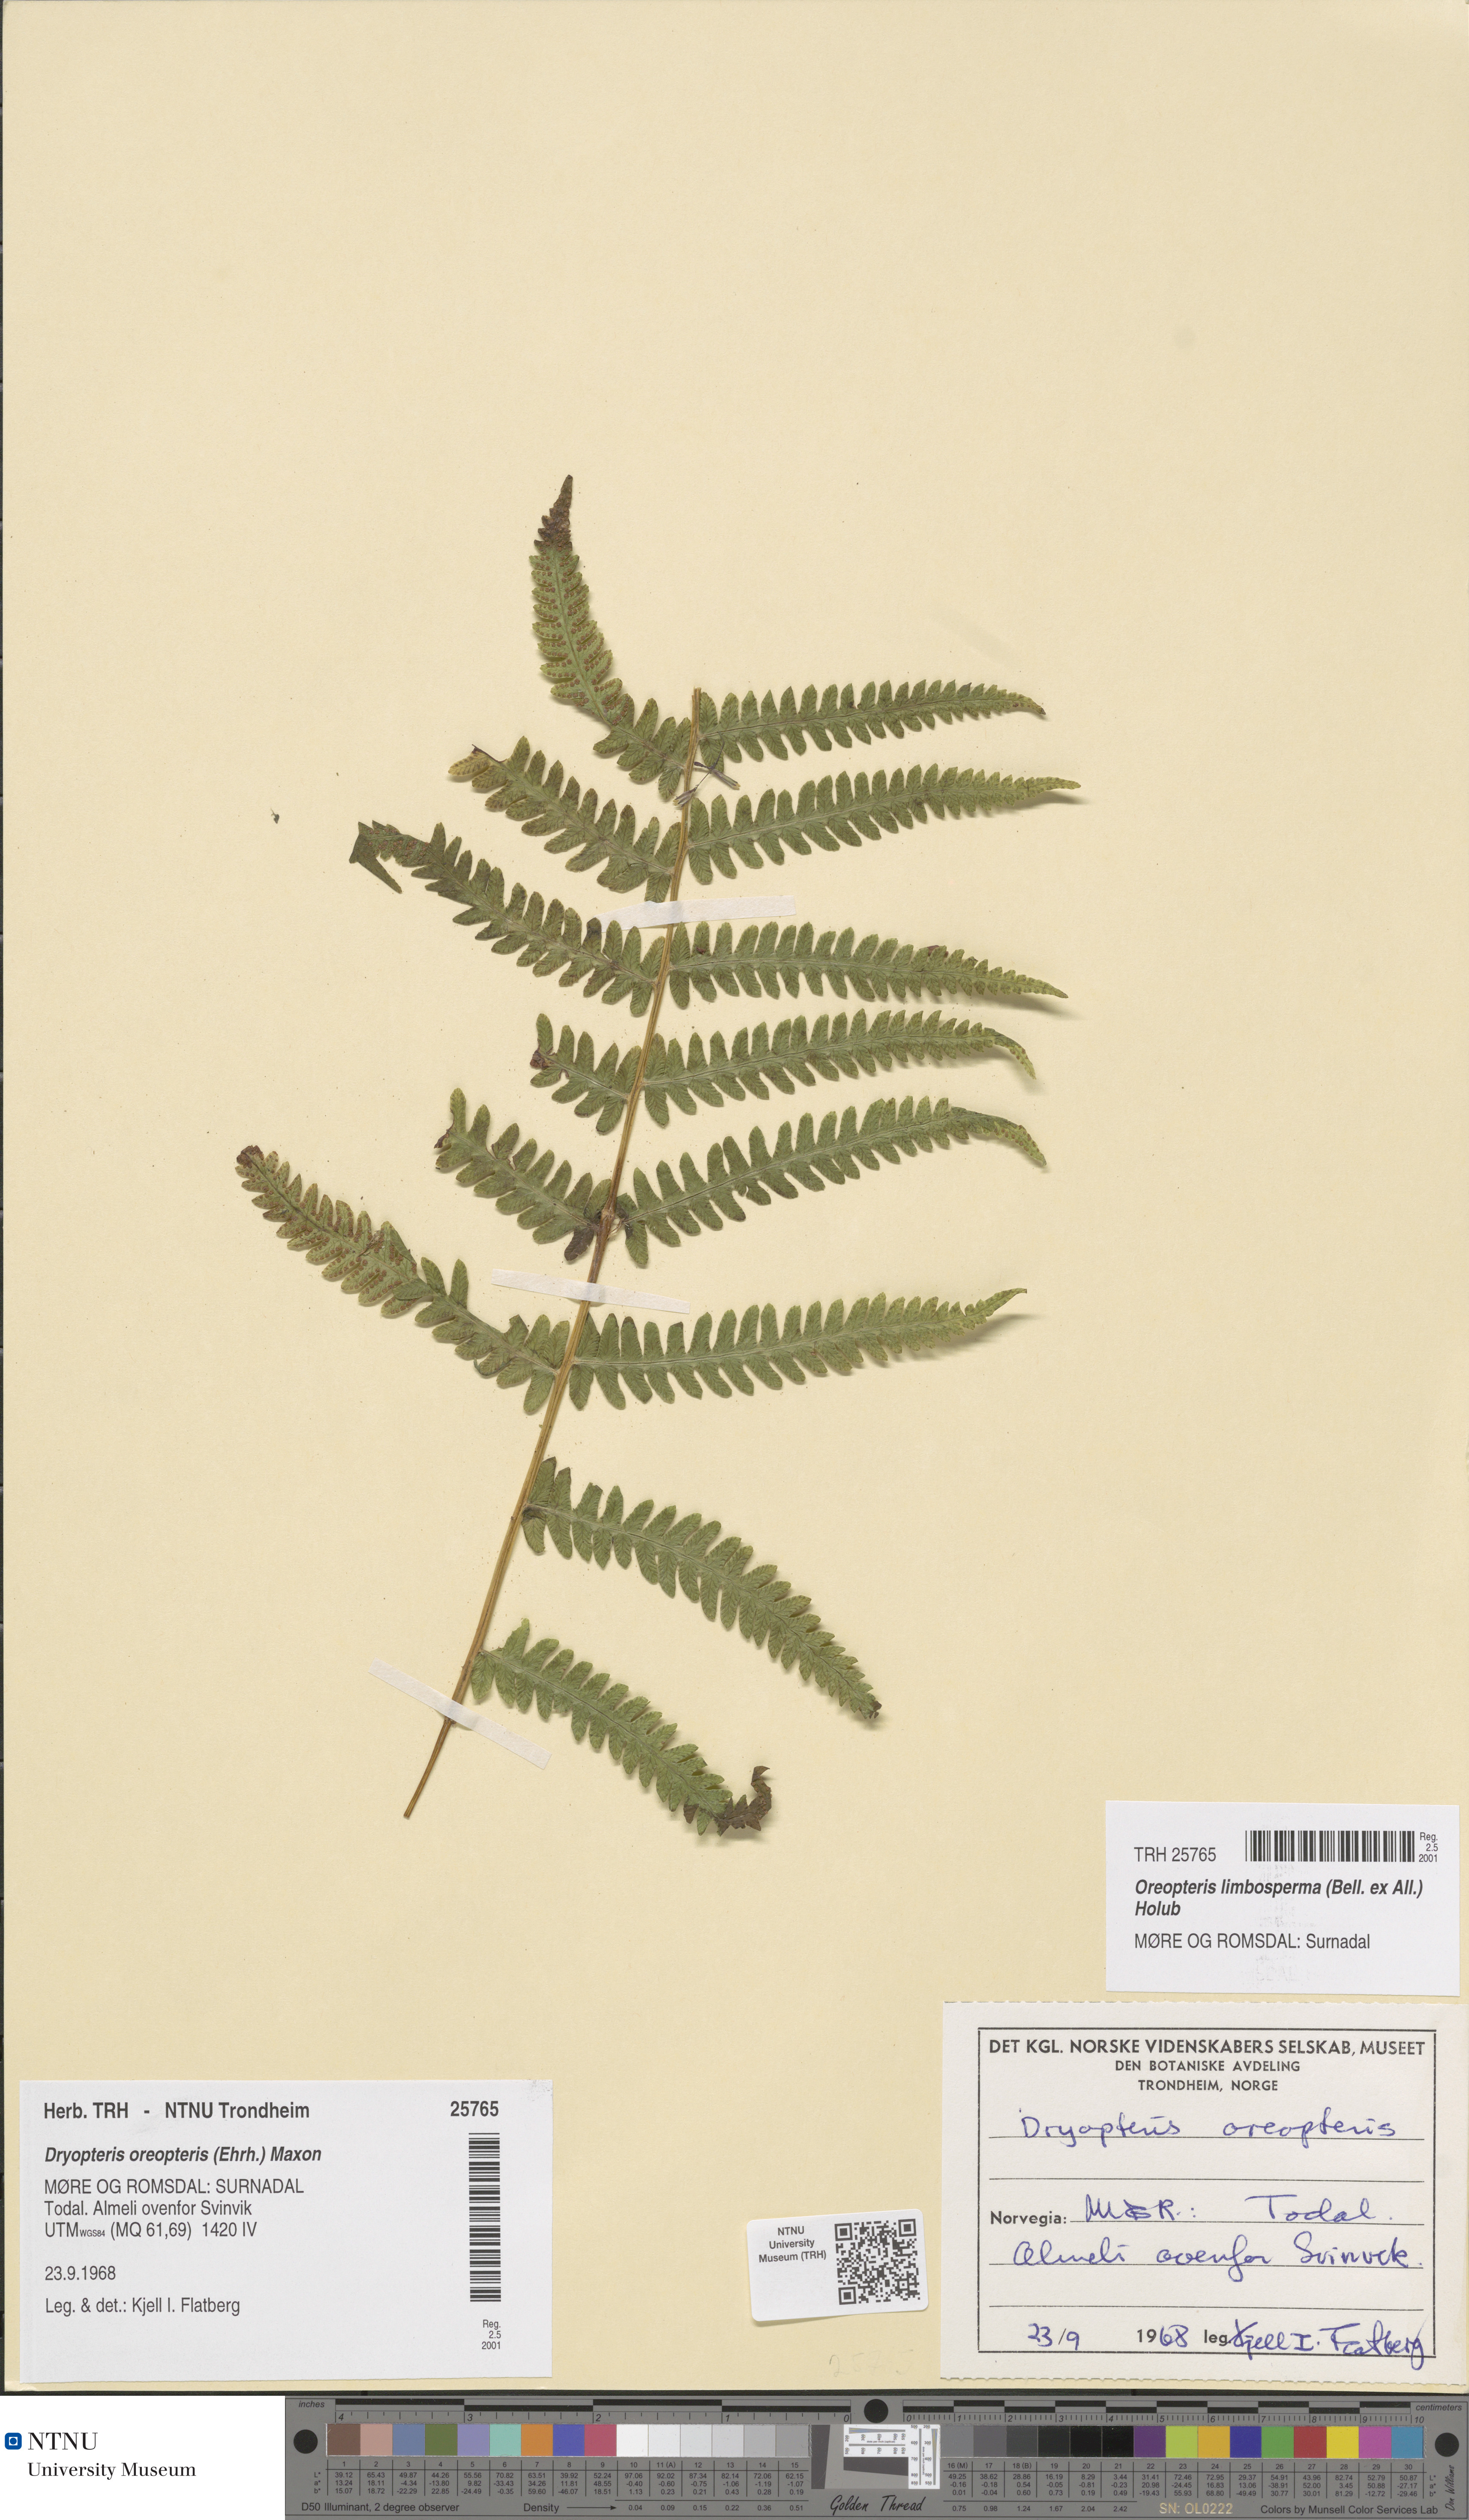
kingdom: Plantae
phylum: Tracheophyta
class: Polypodiopsida
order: Polypodiales
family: Thelypteridaceae
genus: Oreopteris
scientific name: Oreopteris limbosperma
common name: Lemon-scented fern
